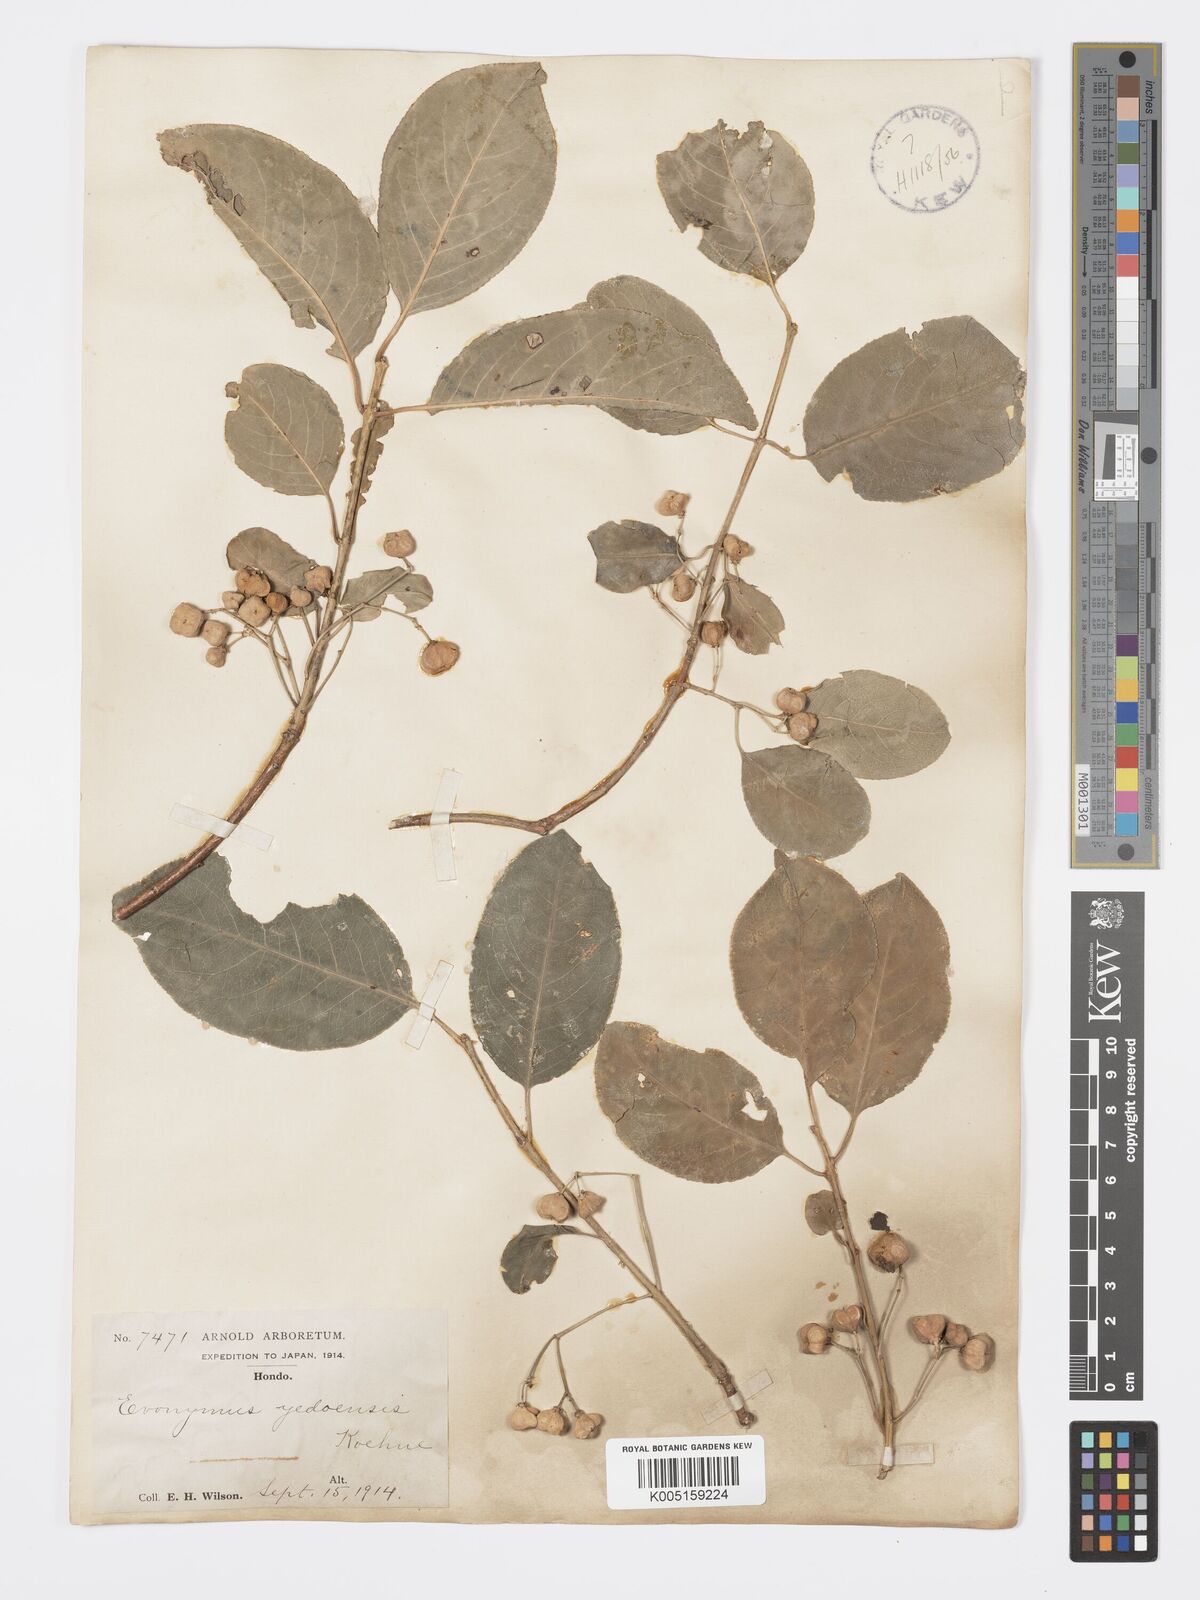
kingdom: Plantae
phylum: Tracheophyta
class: Magnoliopsida
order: Celastrales
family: Celastraceae
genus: Euonymus
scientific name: Euonymus hamiltonianus
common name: Hamilton's spindletree
